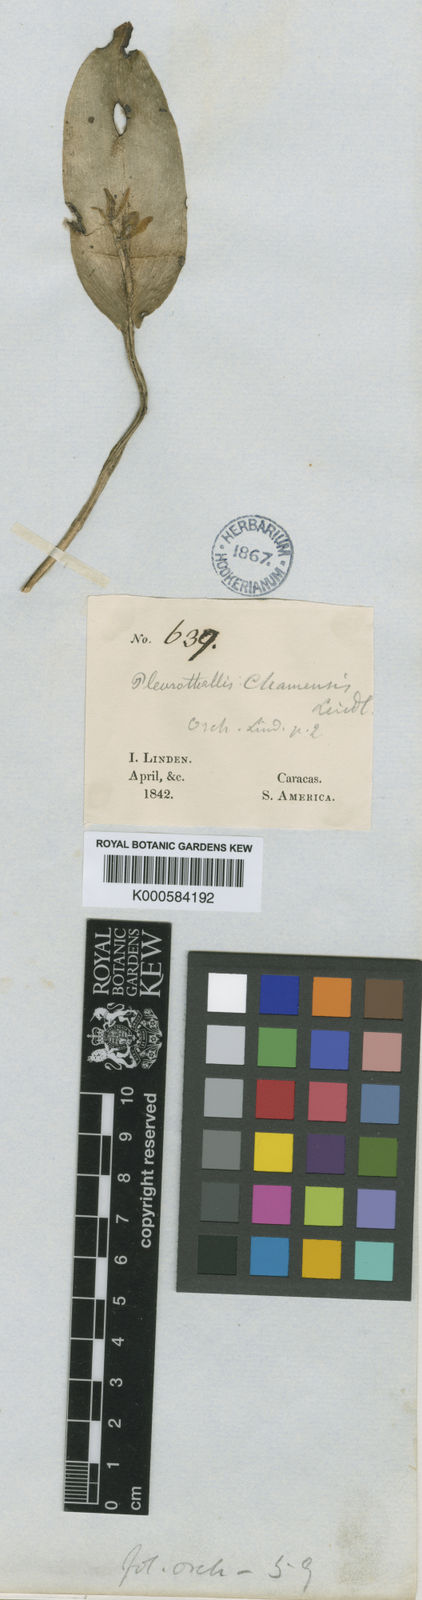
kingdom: Plantae
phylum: Tracheophyta
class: Liliopsida
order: Asparagales
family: Orchidaceae
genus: Acianthera
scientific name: Acianthera polystachya
